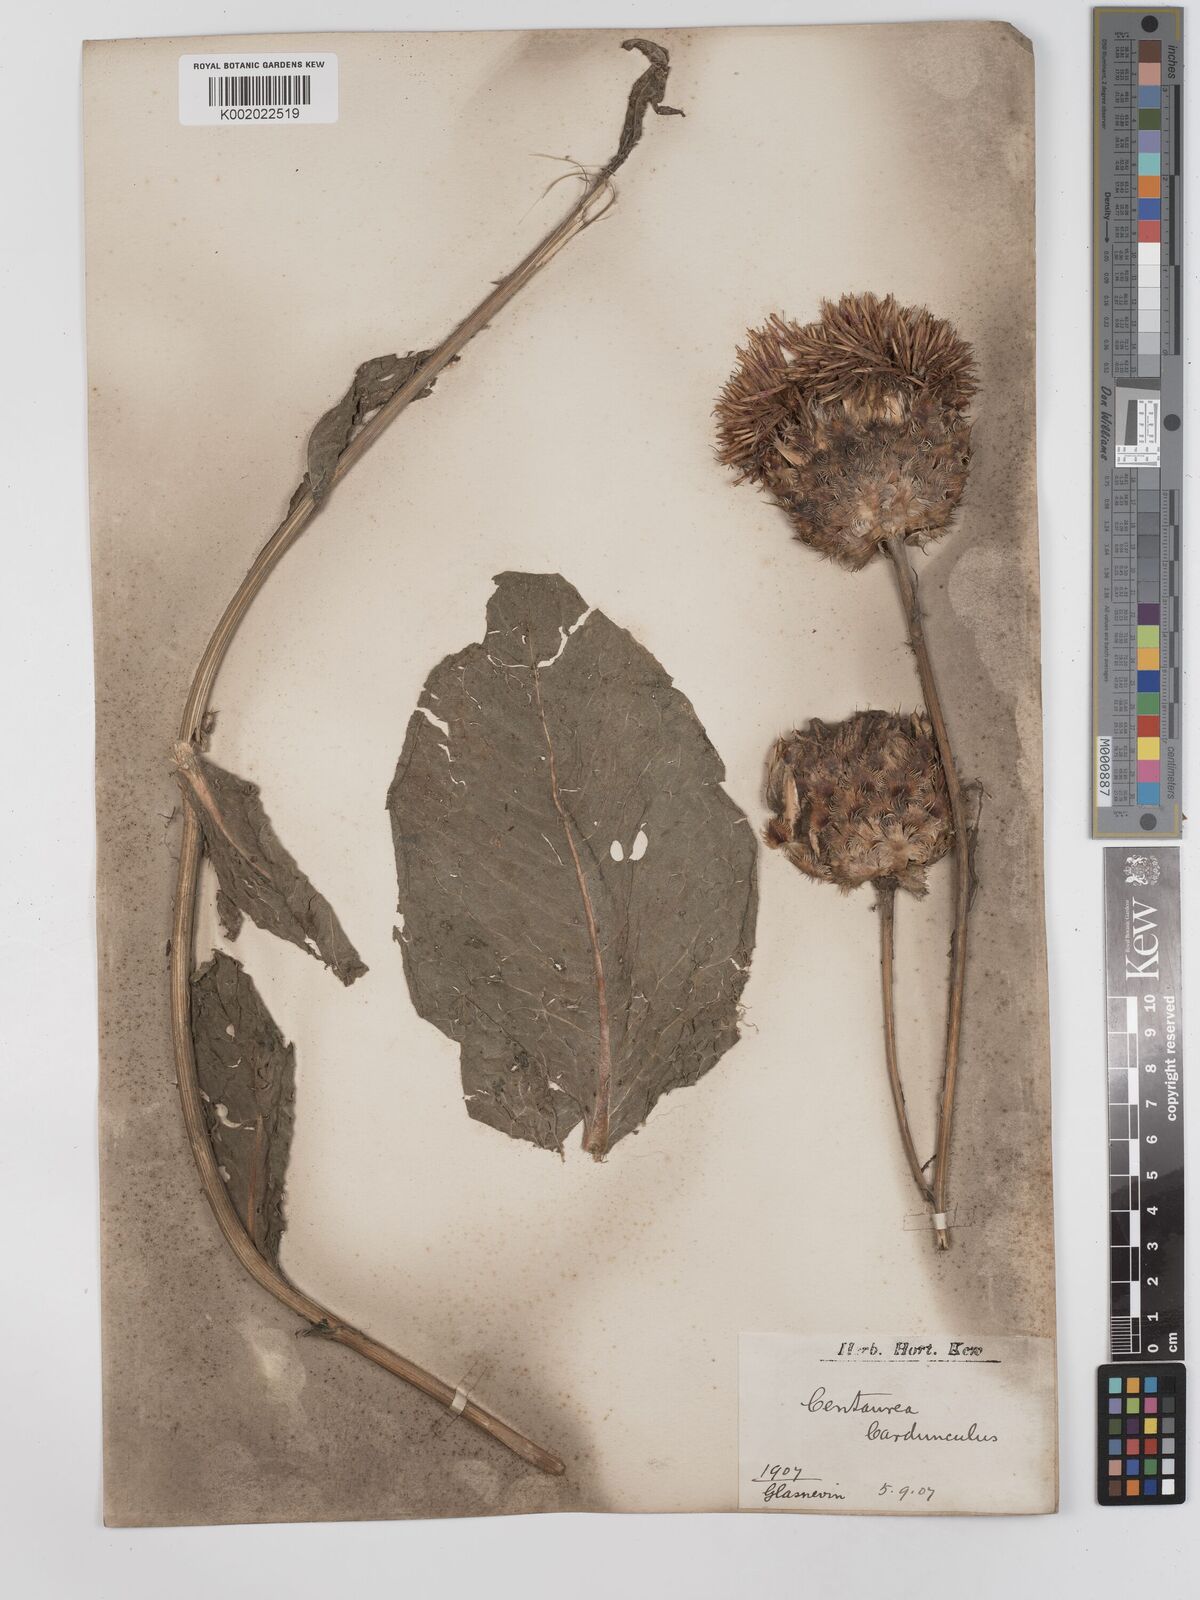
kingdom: Plantae
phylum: Tracheophyta
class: Magnoliopsida
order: Asterales
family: Asteraceae
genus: Centaurea
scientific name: Centaurea regia
